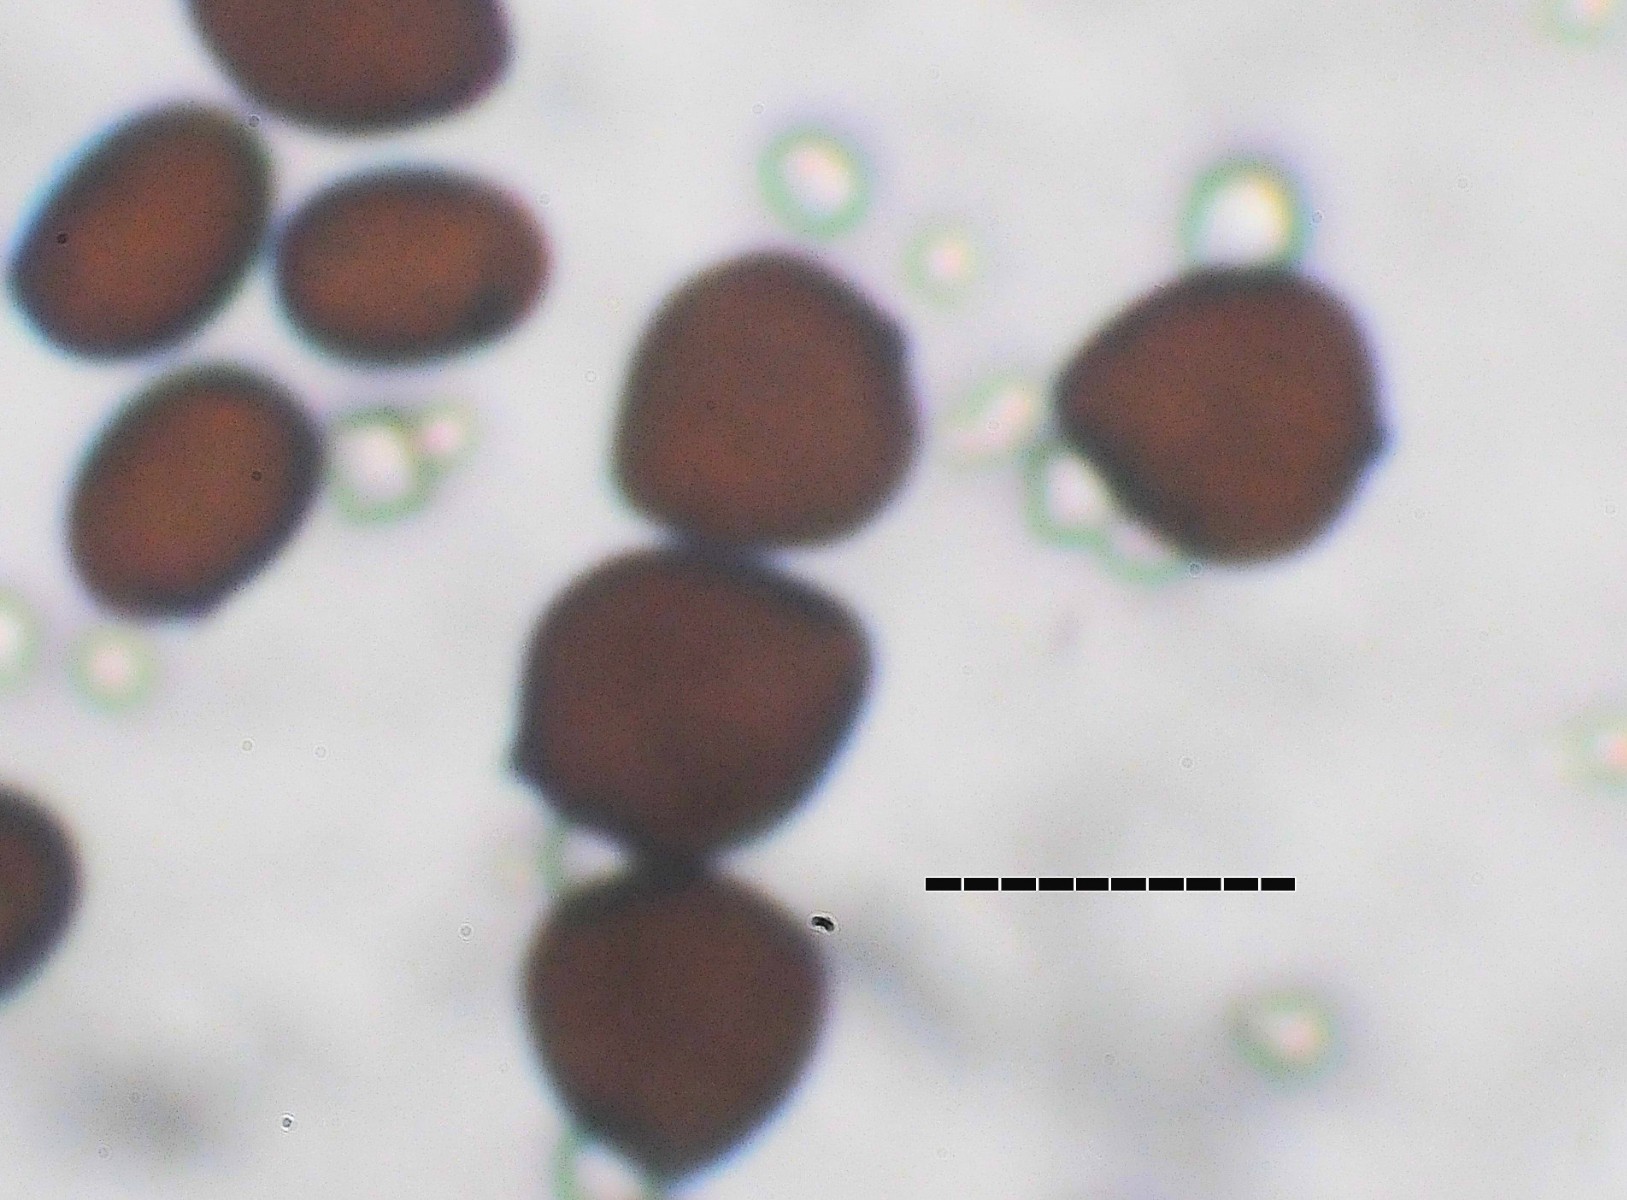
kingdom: Fungi
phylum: Basidiomycota
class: Agaricomycetes
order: Agaricales
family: Psathyrellaceae
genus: Parasola
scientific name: Parasola lactea
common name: glat hjulhat
